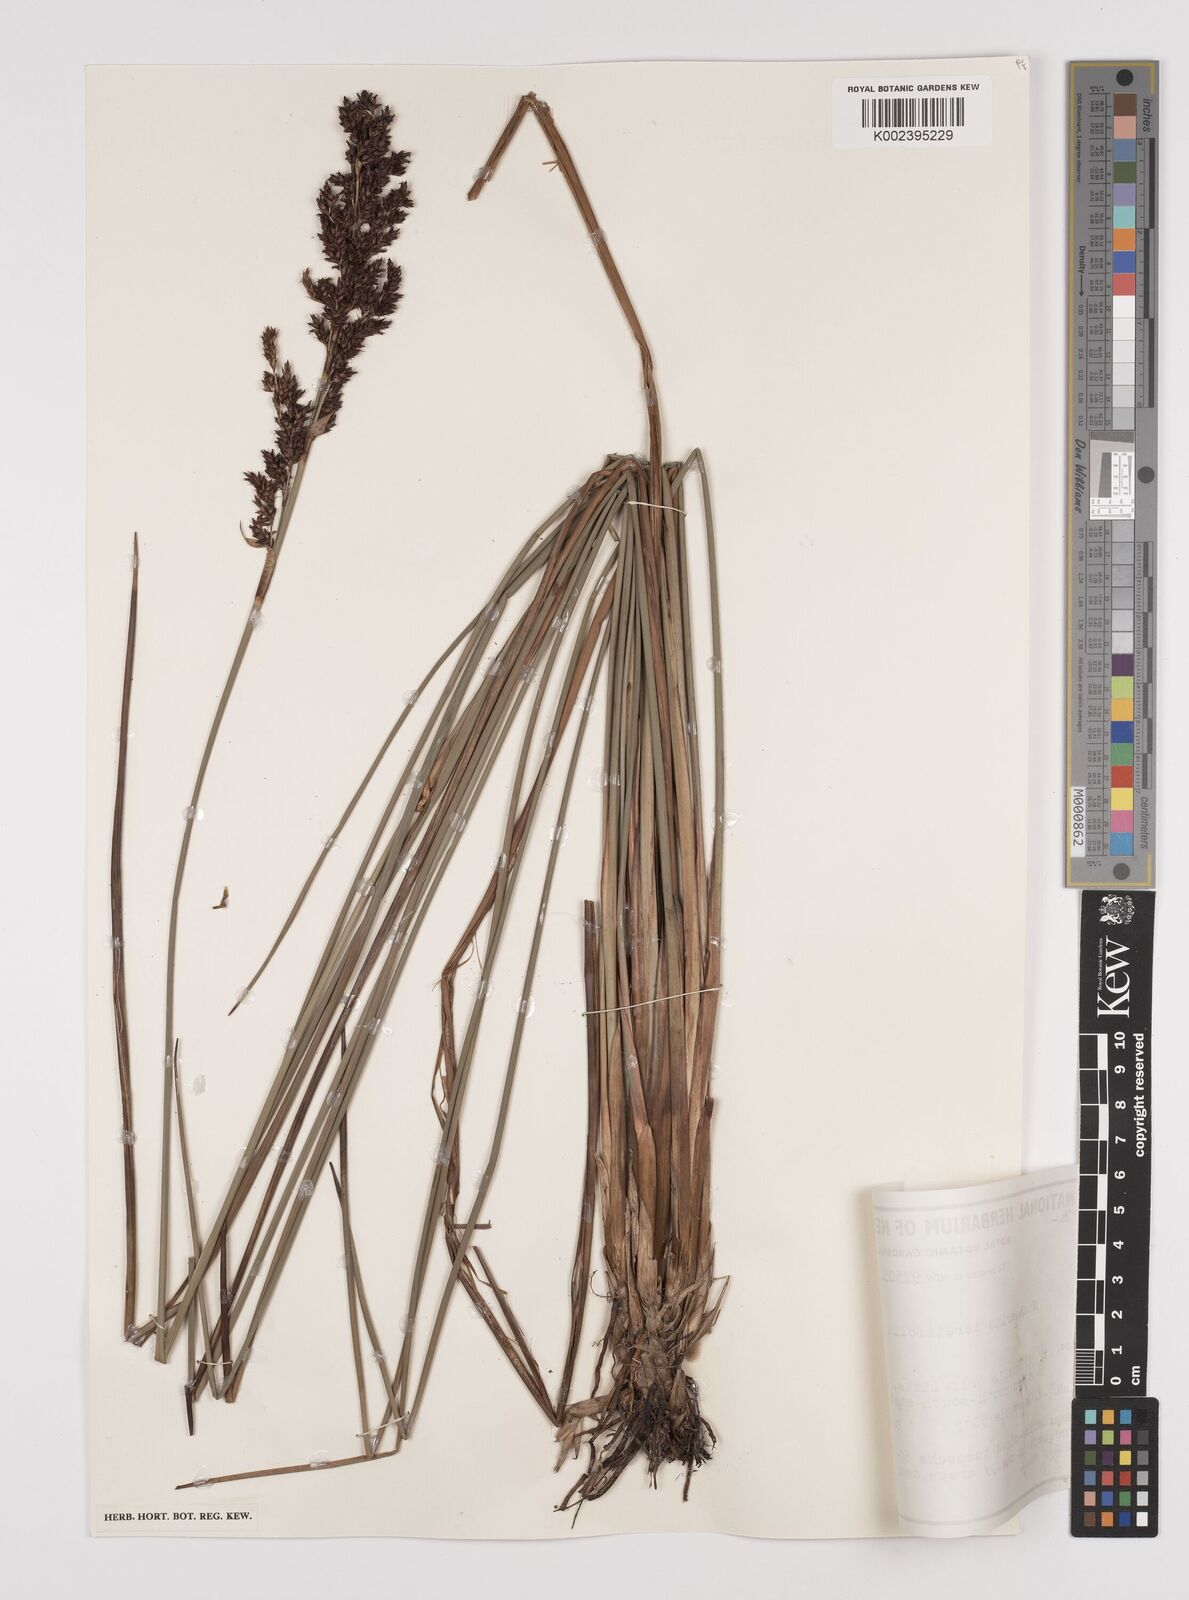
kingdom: Plantae
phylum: Tracheophyta
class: Liliopsida
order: Poales
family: Cyperaceae
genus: Machaerina
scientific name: Machaerina teretifolia
